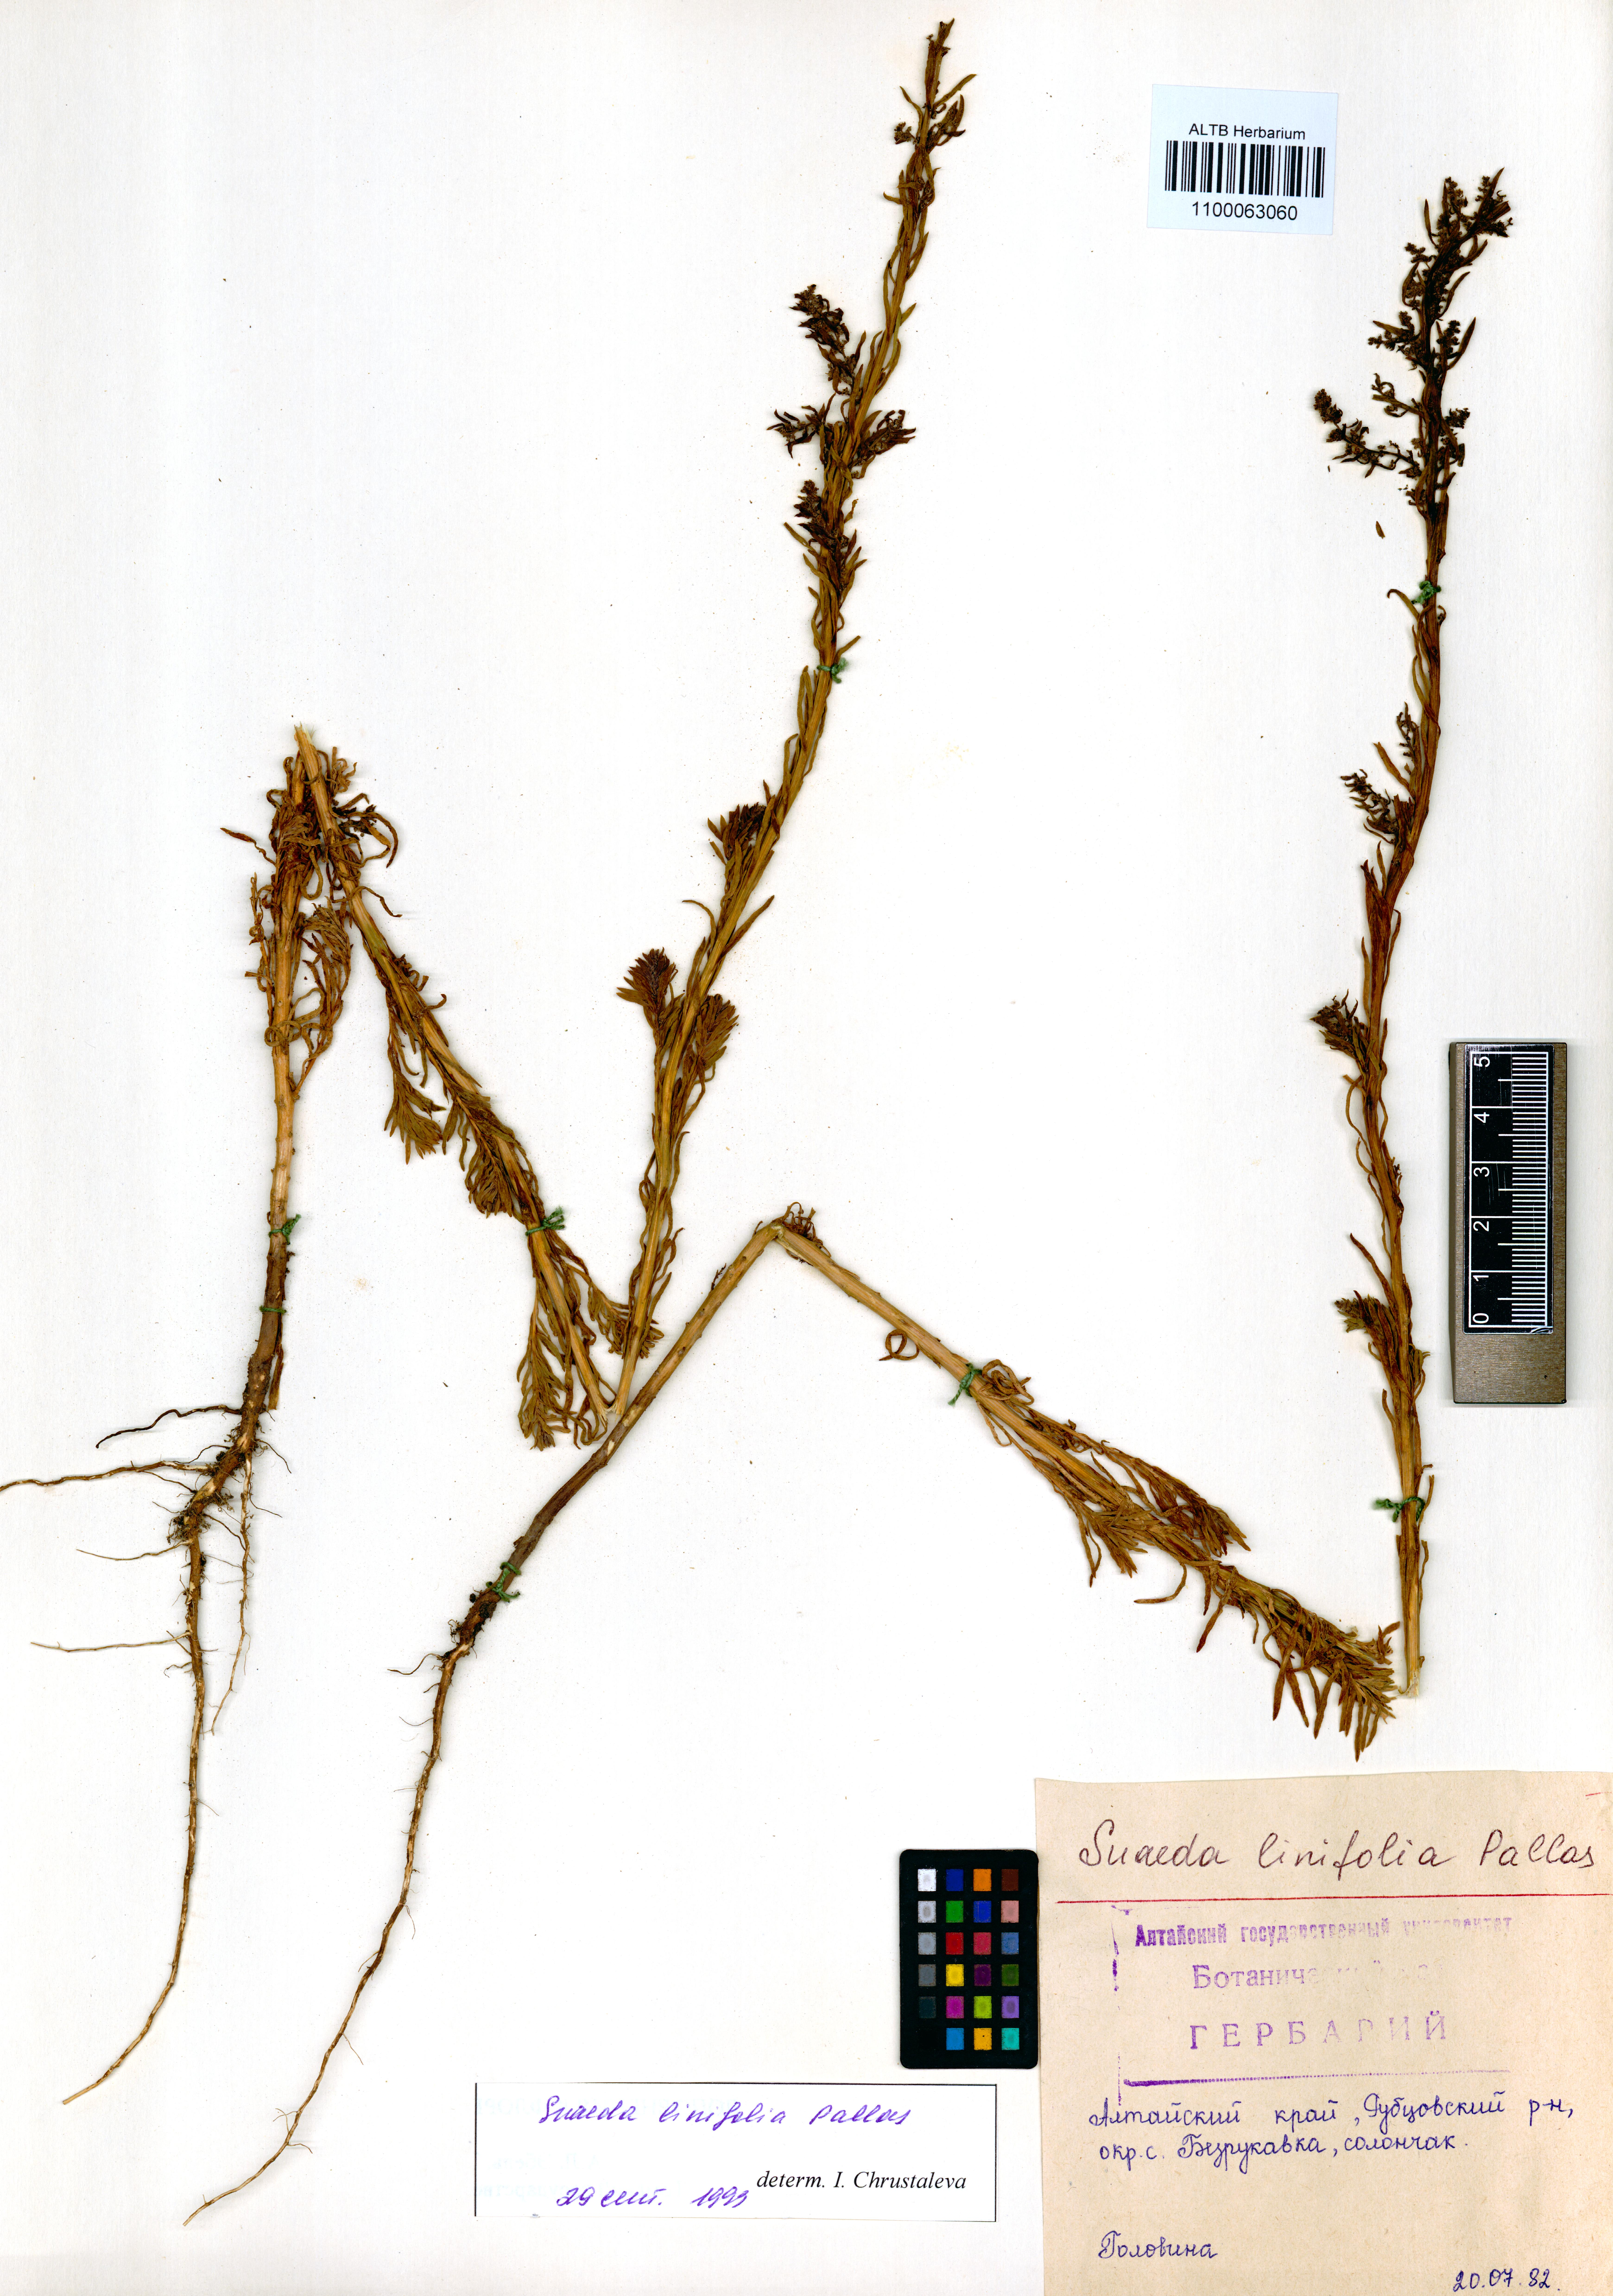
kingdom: Plantae
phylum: Tracheophyta
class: Magnoliopsida
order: Caryophyllales
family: Amaranthaceae
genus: Suaeda
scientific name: Suaeda linifolia
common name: Pin-leaf seepweed
